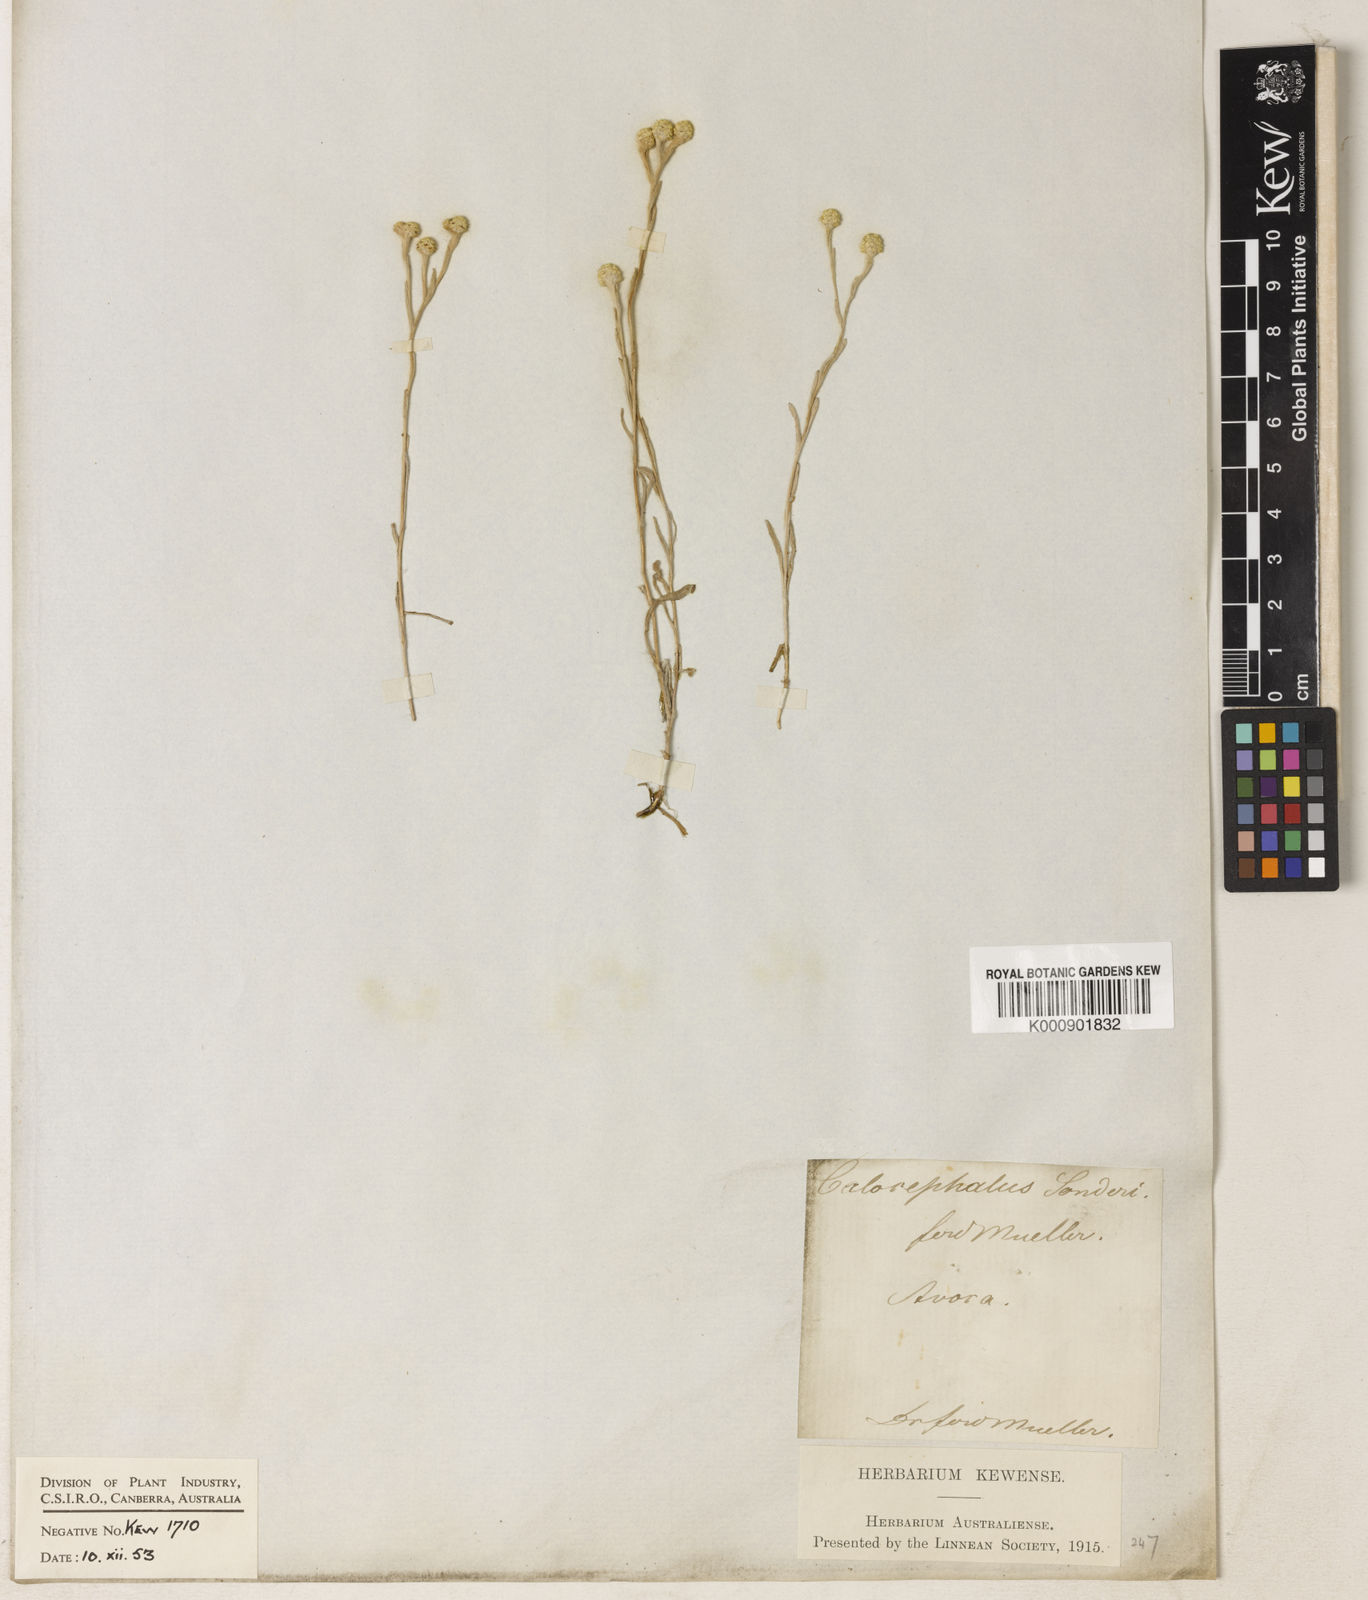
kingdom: Plantae
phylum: Tracheophyta
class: Magnoliopsida
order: Asterales
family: Asteraceae
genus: Calocephalus
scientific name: Calocephalus sonderi
